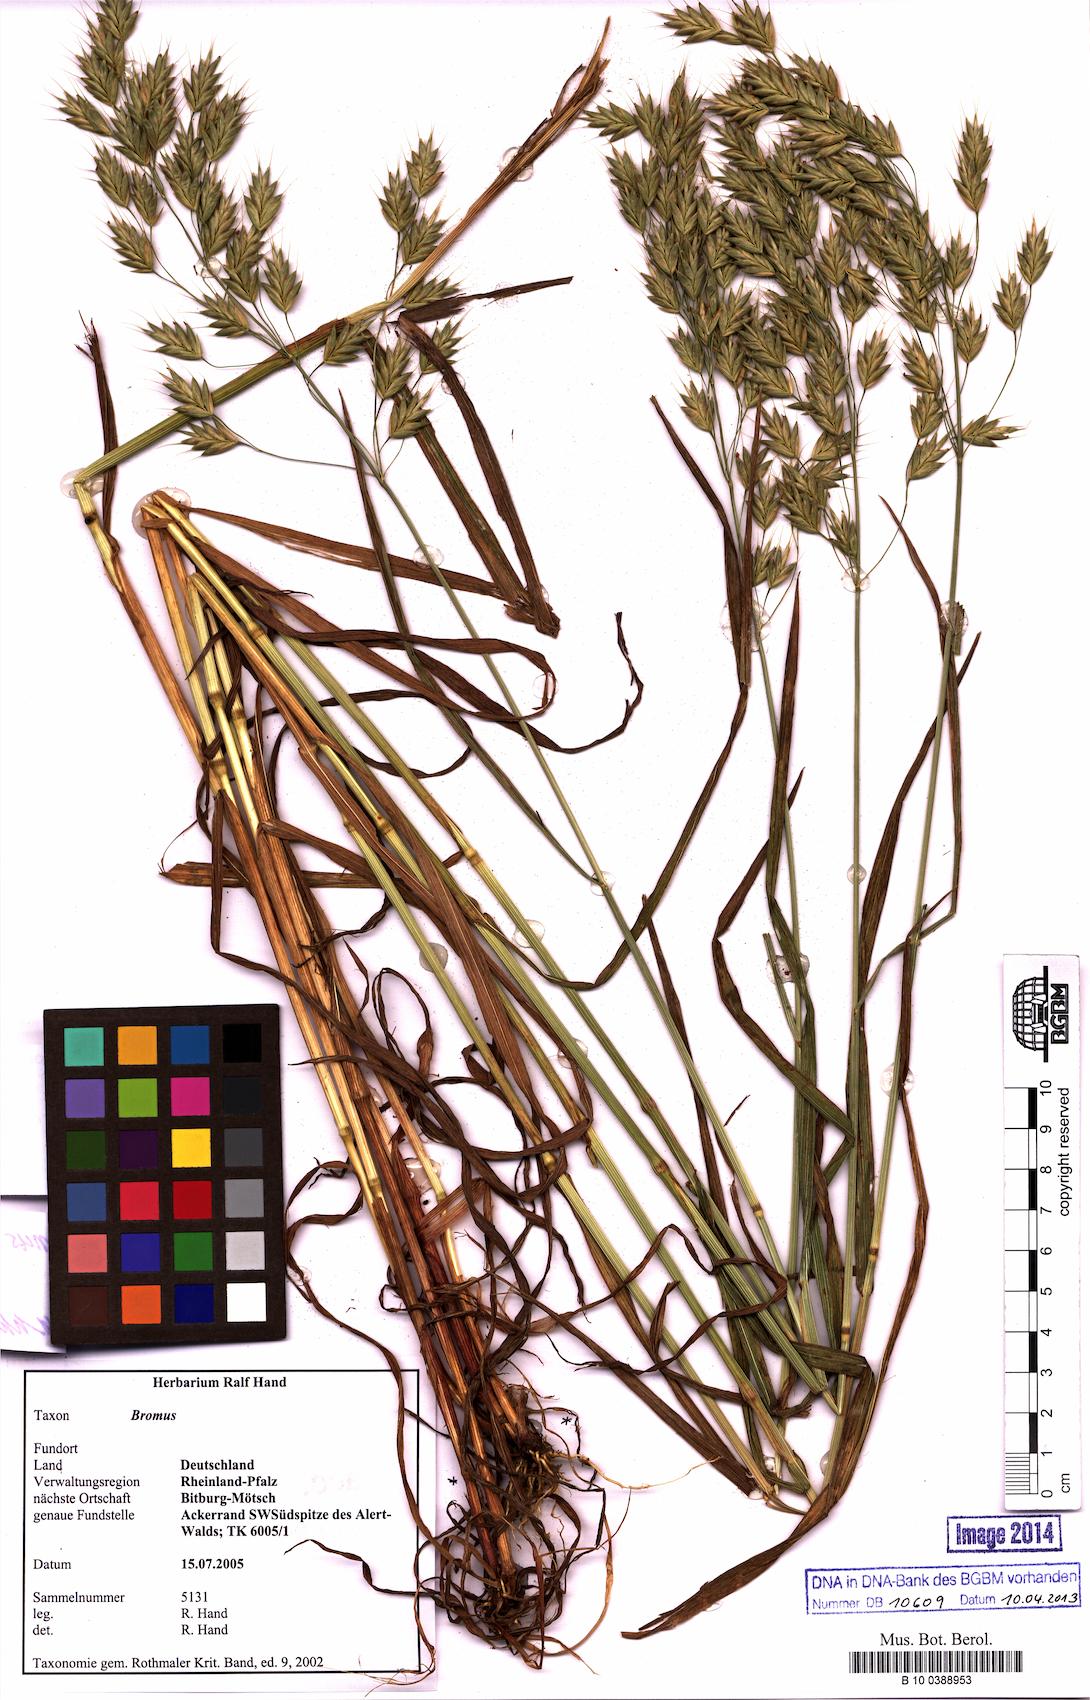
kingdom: Plantae
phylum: Tracheophyta
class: Liliopsida
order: Poales
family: Poaceae
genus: Bromus
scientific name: Bromus secalinus
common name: Rye brome
